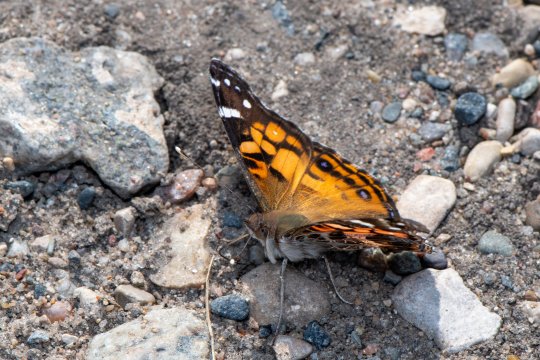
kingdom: Animalia
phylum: Arthropoda
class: Insecta
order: Lepidoptera
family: Nymphalidae
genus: Vanessa
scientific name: Vanessa virginiensis
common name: American Lady
